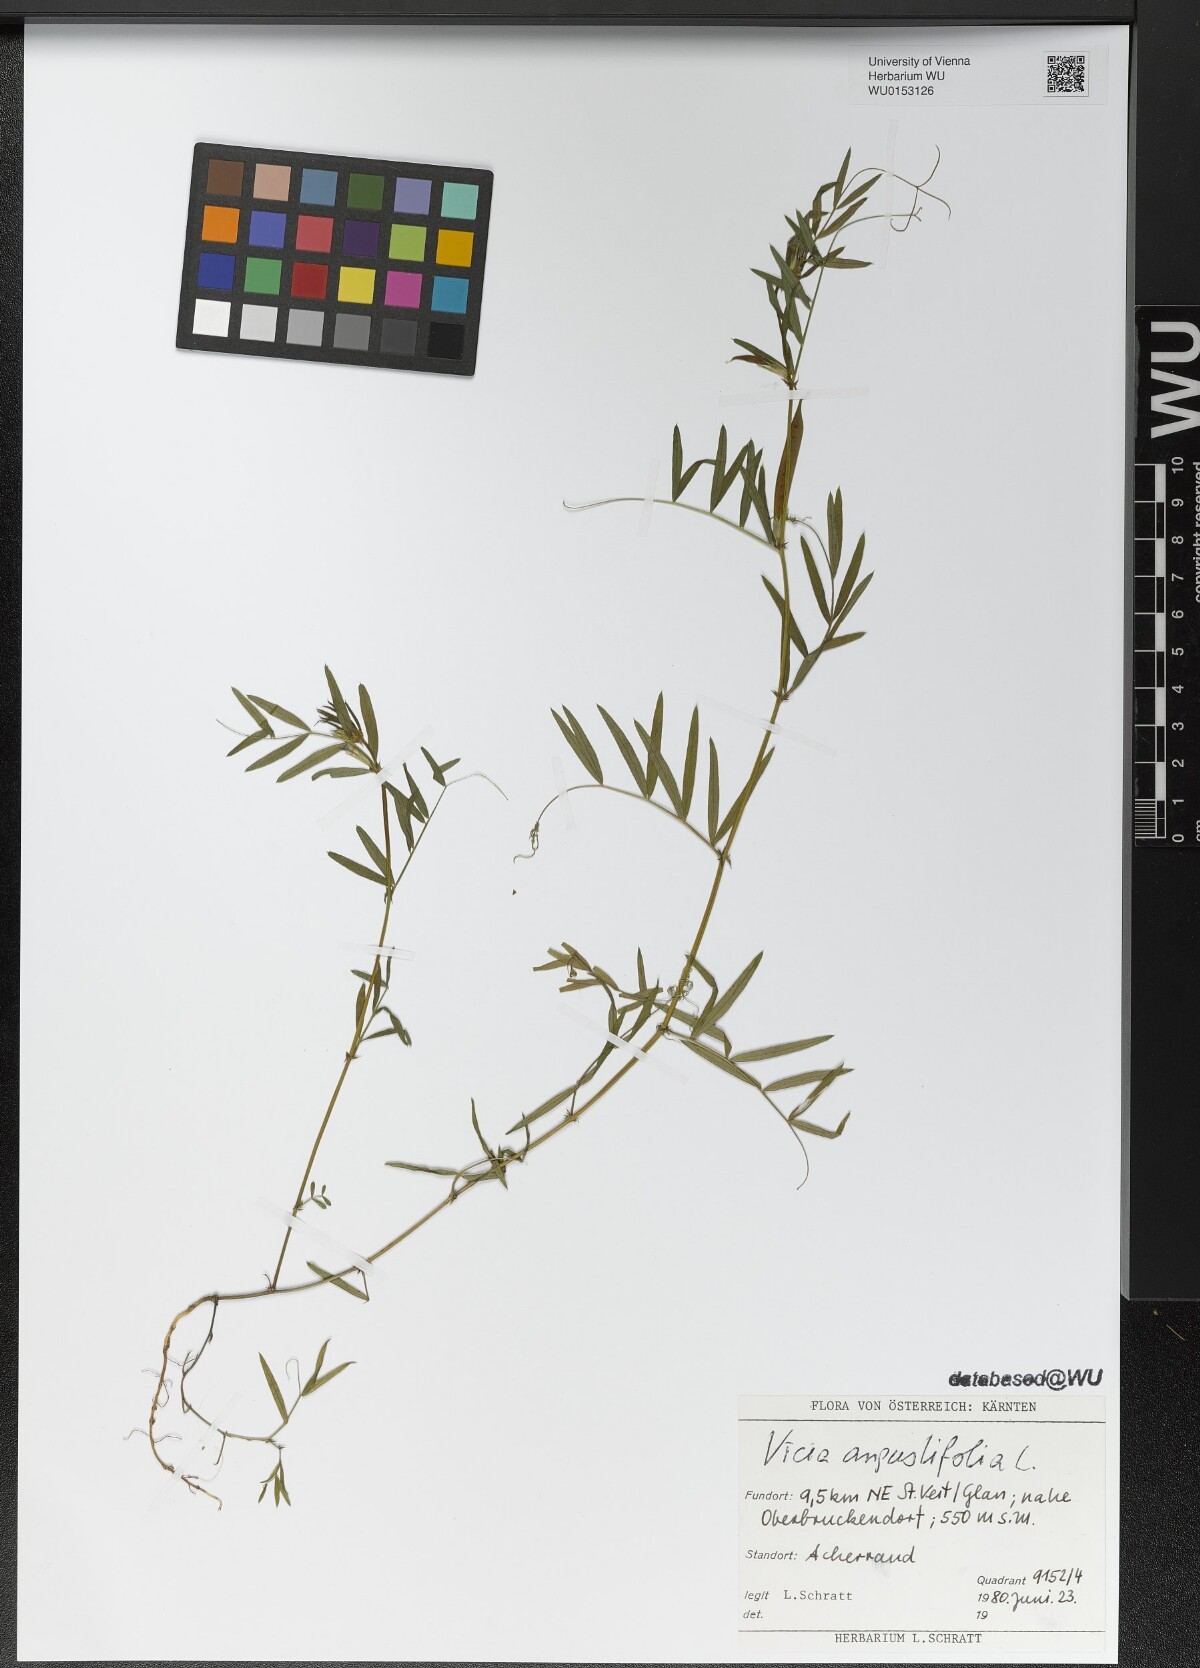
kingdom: Plantae
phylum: Tracheophyta
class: Magnoliopsida
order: Fabales
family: Fabaceae
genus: Vicia
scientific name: Vicia sativa
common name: Garden vetch
